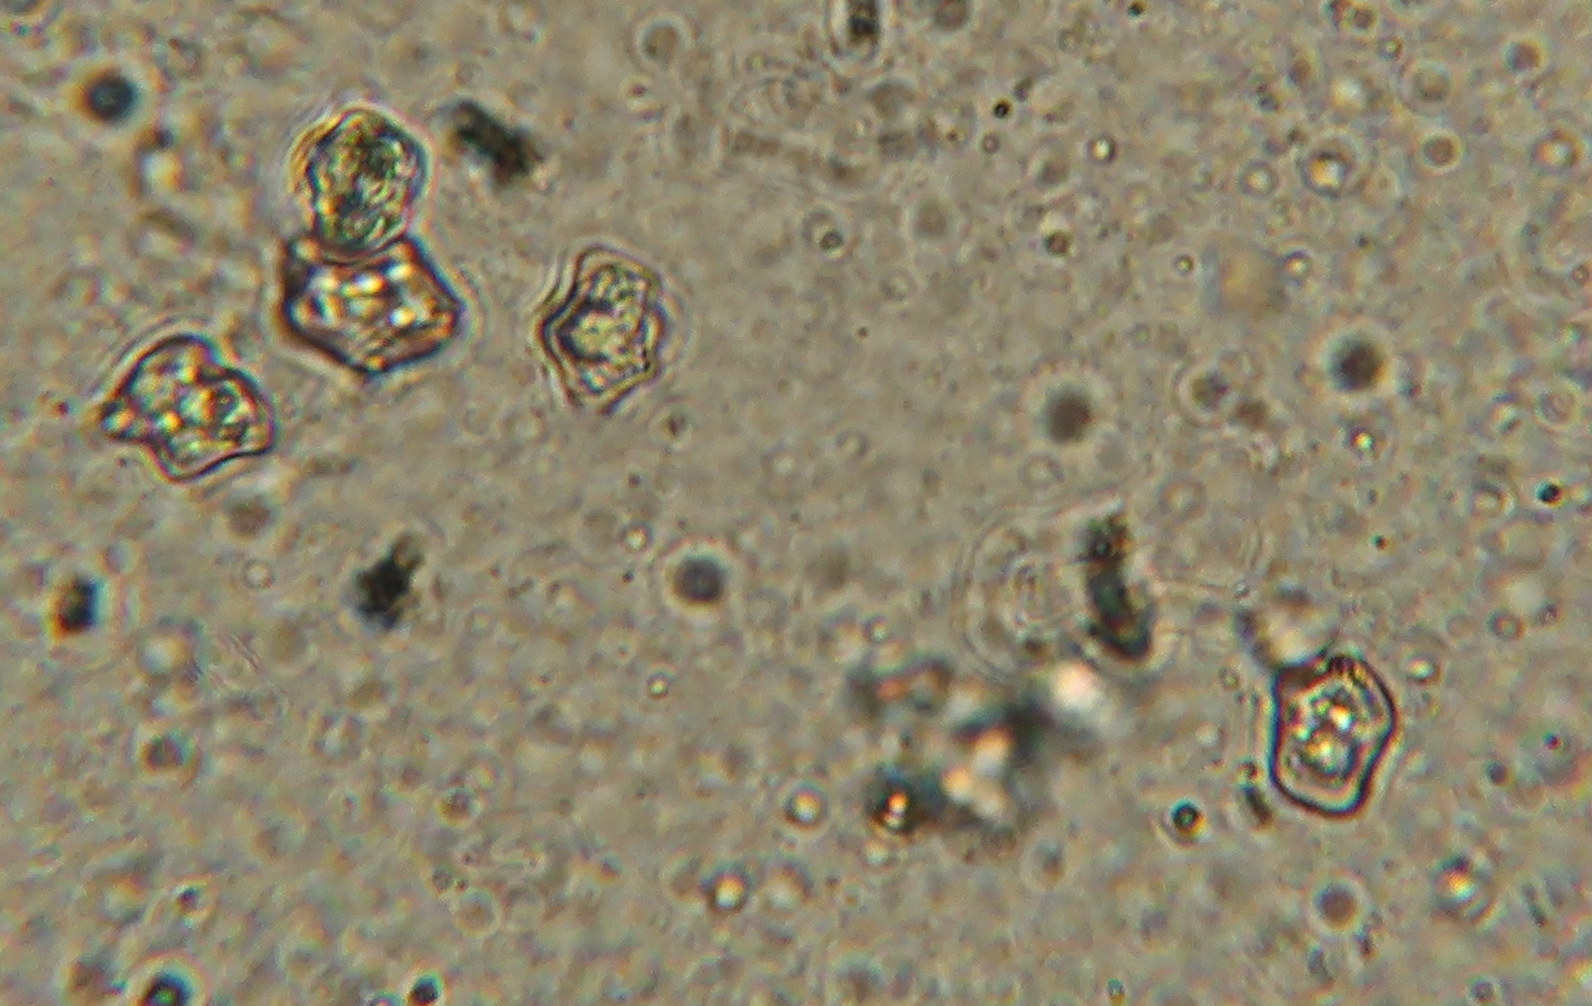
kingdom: Fungi
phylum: Basidiomycota
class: Agaricomycetes
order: Agaricales
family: Entolomataceae
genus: Entoloma
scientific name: Entoloma pleopodium
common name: duftende rødblad
